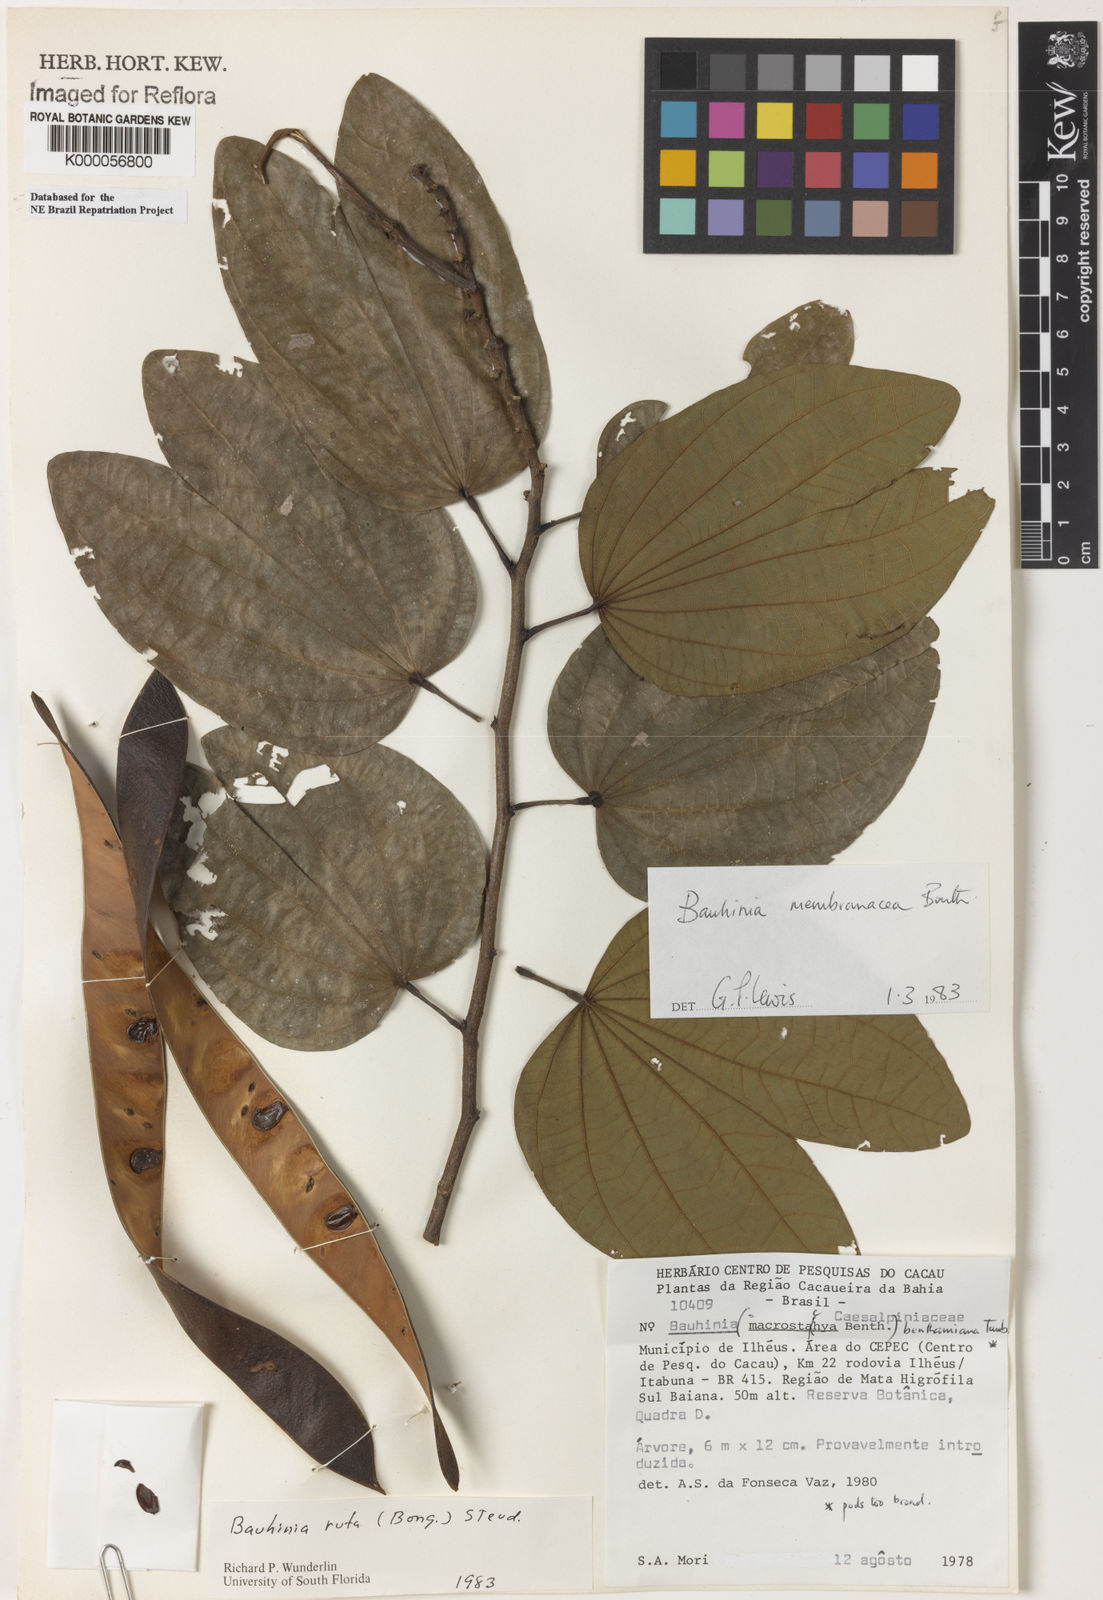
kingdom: Plantae
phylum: Tracheophyta
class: Magnoliopsida
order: Fabales
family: Fabaceae
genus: Bauhinia
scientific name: Bauhinia rufa
